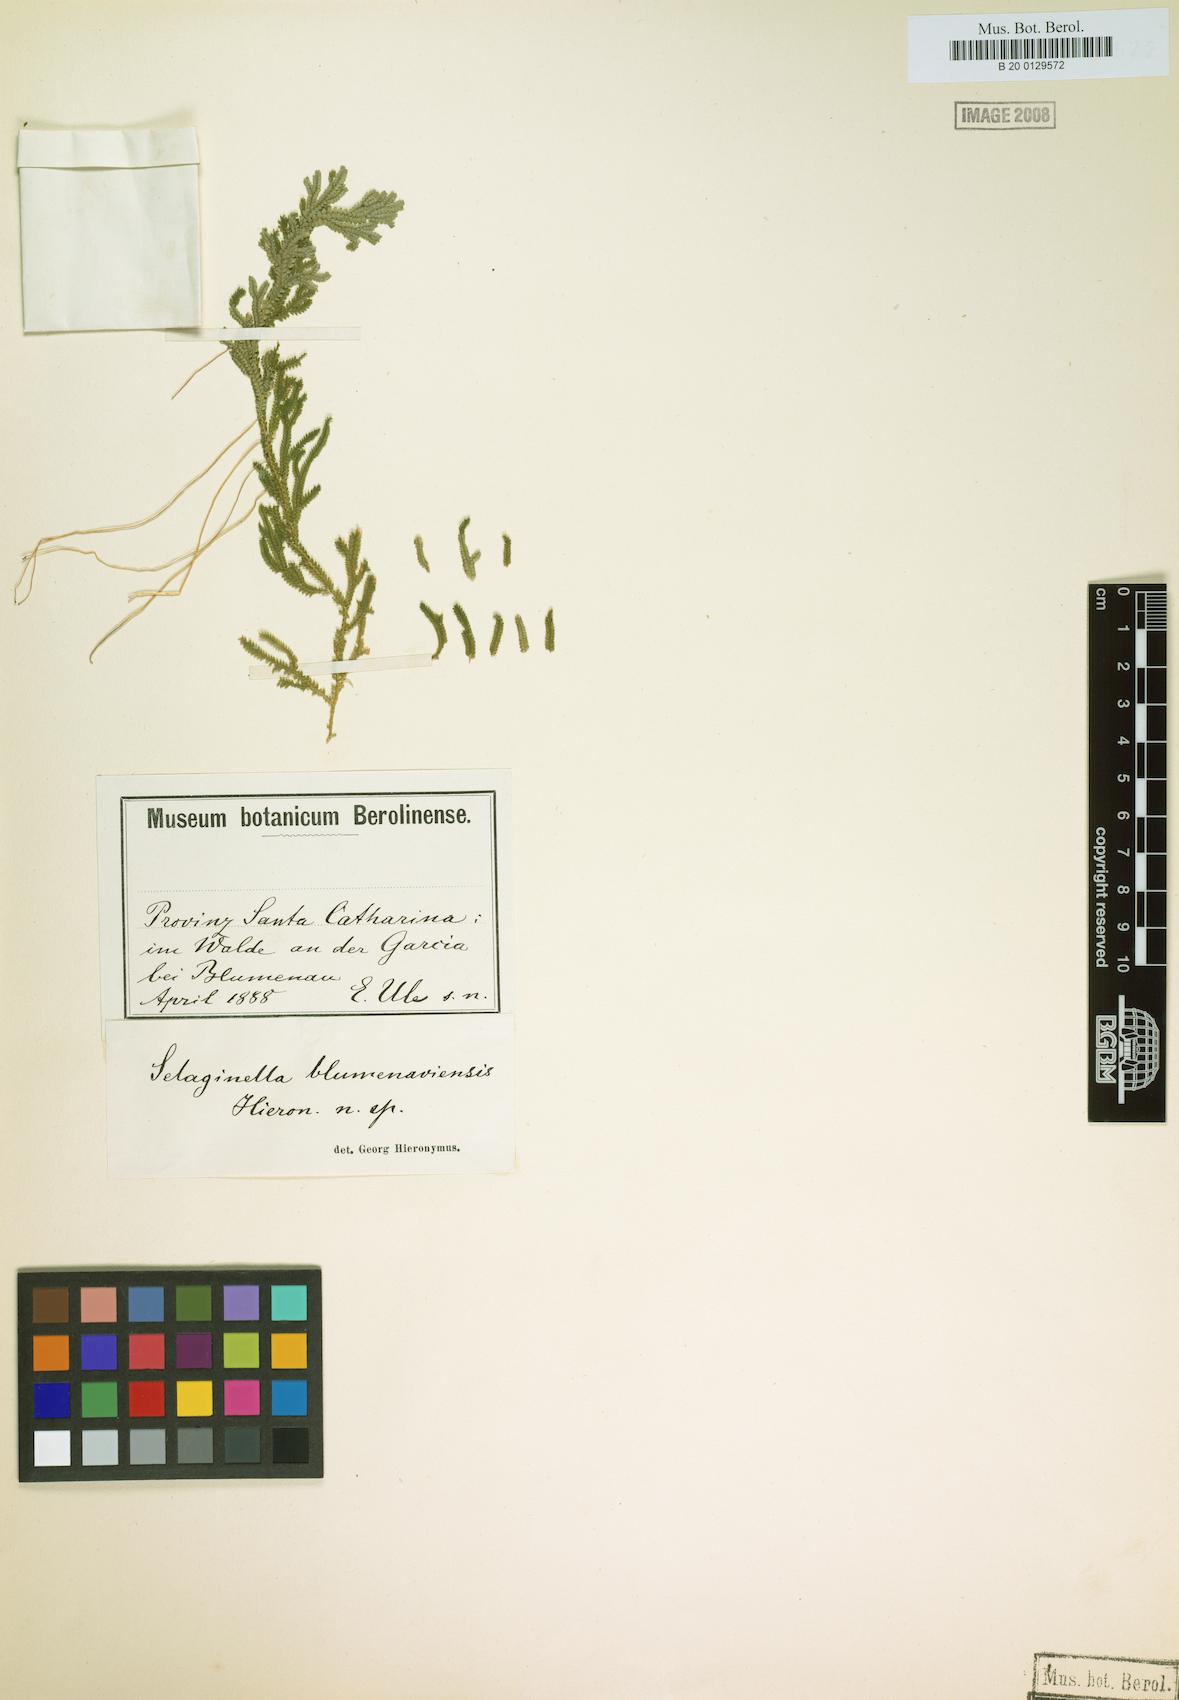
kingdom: Plantae
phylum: Tracheophyta
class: Lycopodiopsida
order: Selaginellales
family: Selaginellaceae
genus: Selaginella
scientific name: Selaginella
